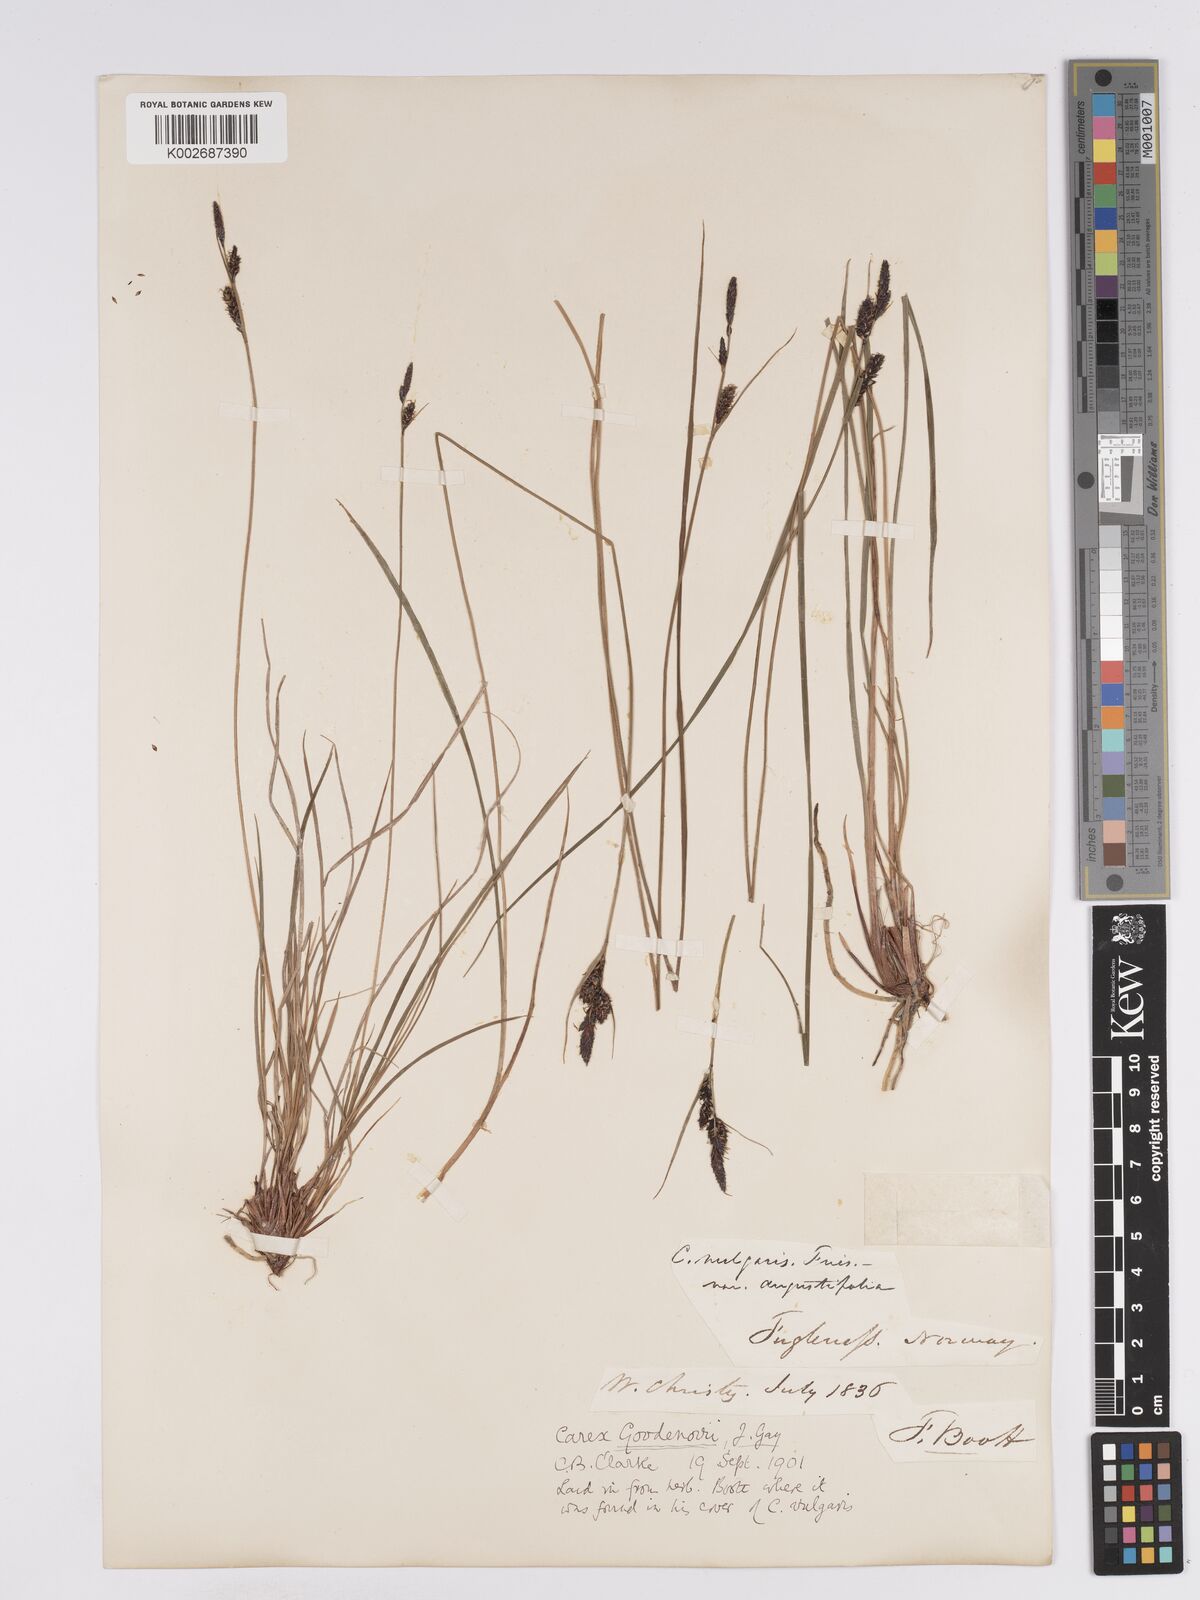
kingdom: Plantae
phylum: Tracheophyta
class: Liliopsida
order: Poales
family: Cyperaceae
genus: Carex
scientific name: Carex nigra
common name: Common sedge
